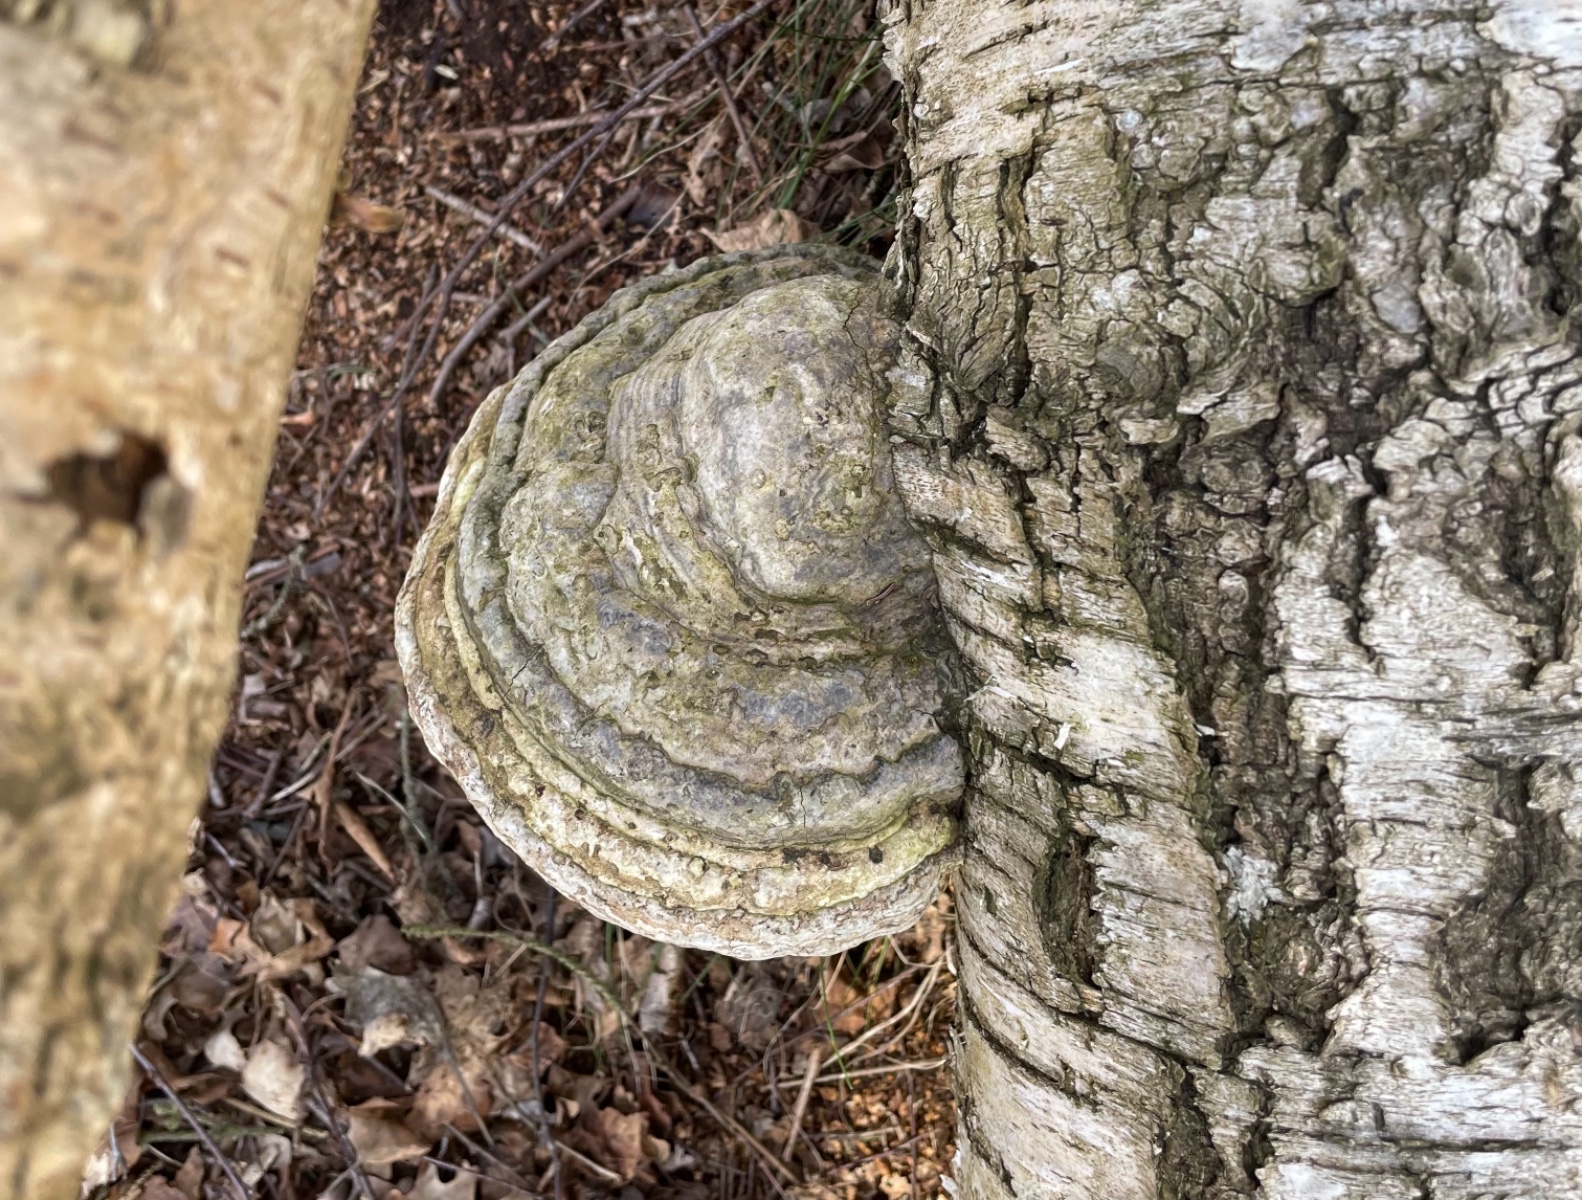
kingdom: Fungi
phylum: Basidiomycota
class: Agaricomycetes
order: Polyporales
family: Polyporaceae
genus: Fomes
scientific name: Fomes fomentarius
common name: tøndersvamp
